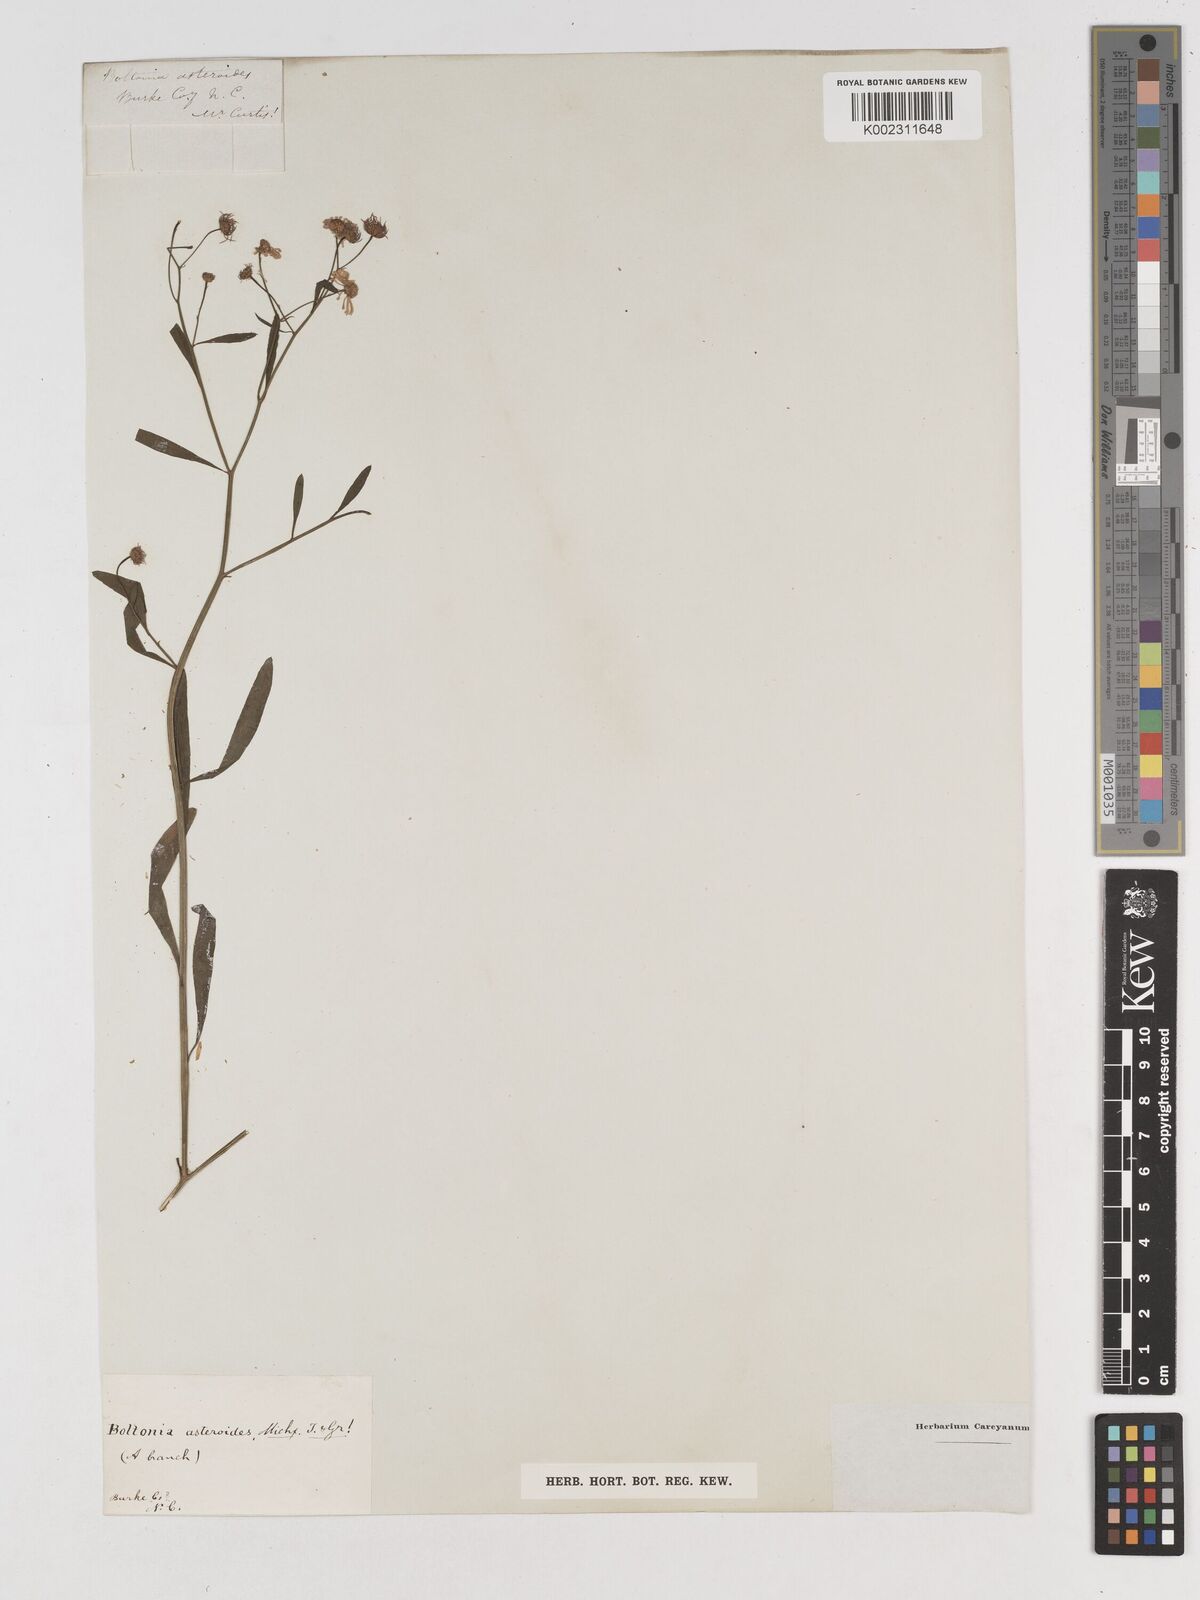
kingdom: Plantae
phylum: Tracheophyta
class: Magnoliopsida
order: Asterales
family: Asteraceae
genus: Boltonia
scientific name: Boltonia diffusa
